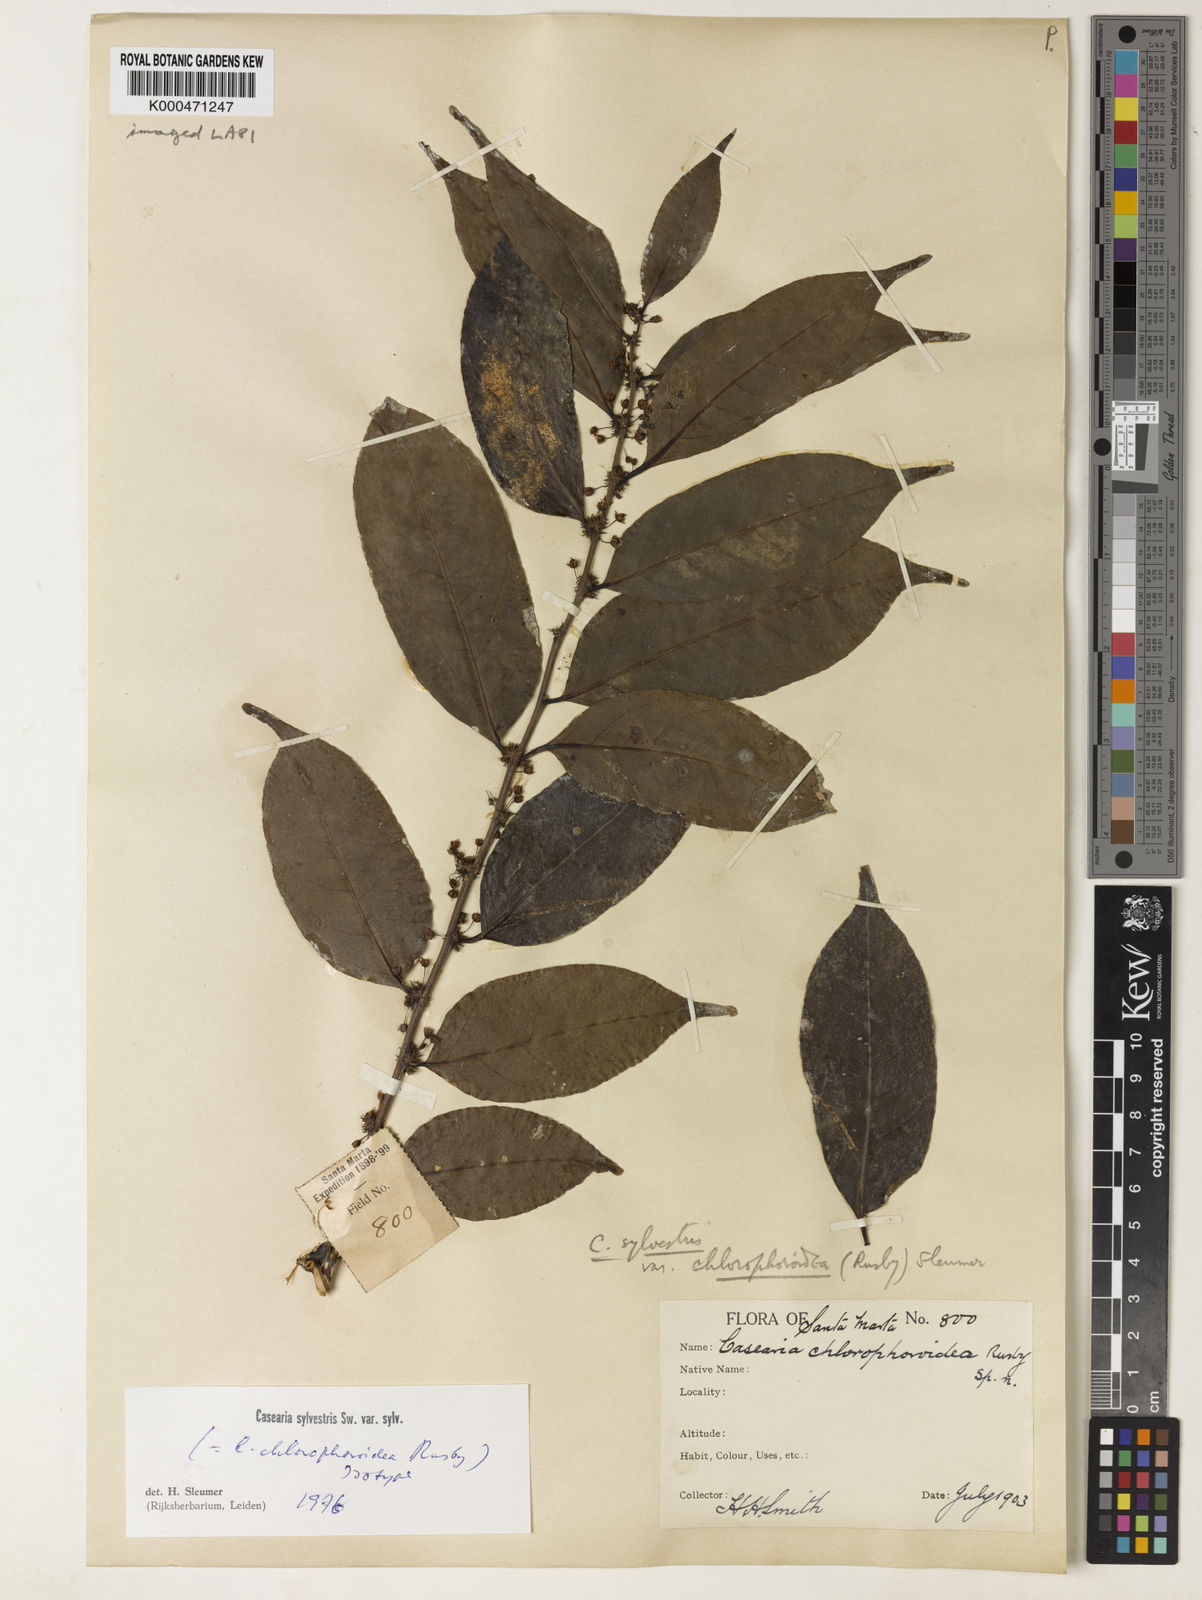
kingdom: Plantae
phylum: Tracheophyta
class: Magnoliopsida
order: Malpighiales
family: Salicaceae
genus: Casearia
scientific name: Casearia sylvestris
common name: Wild sage
